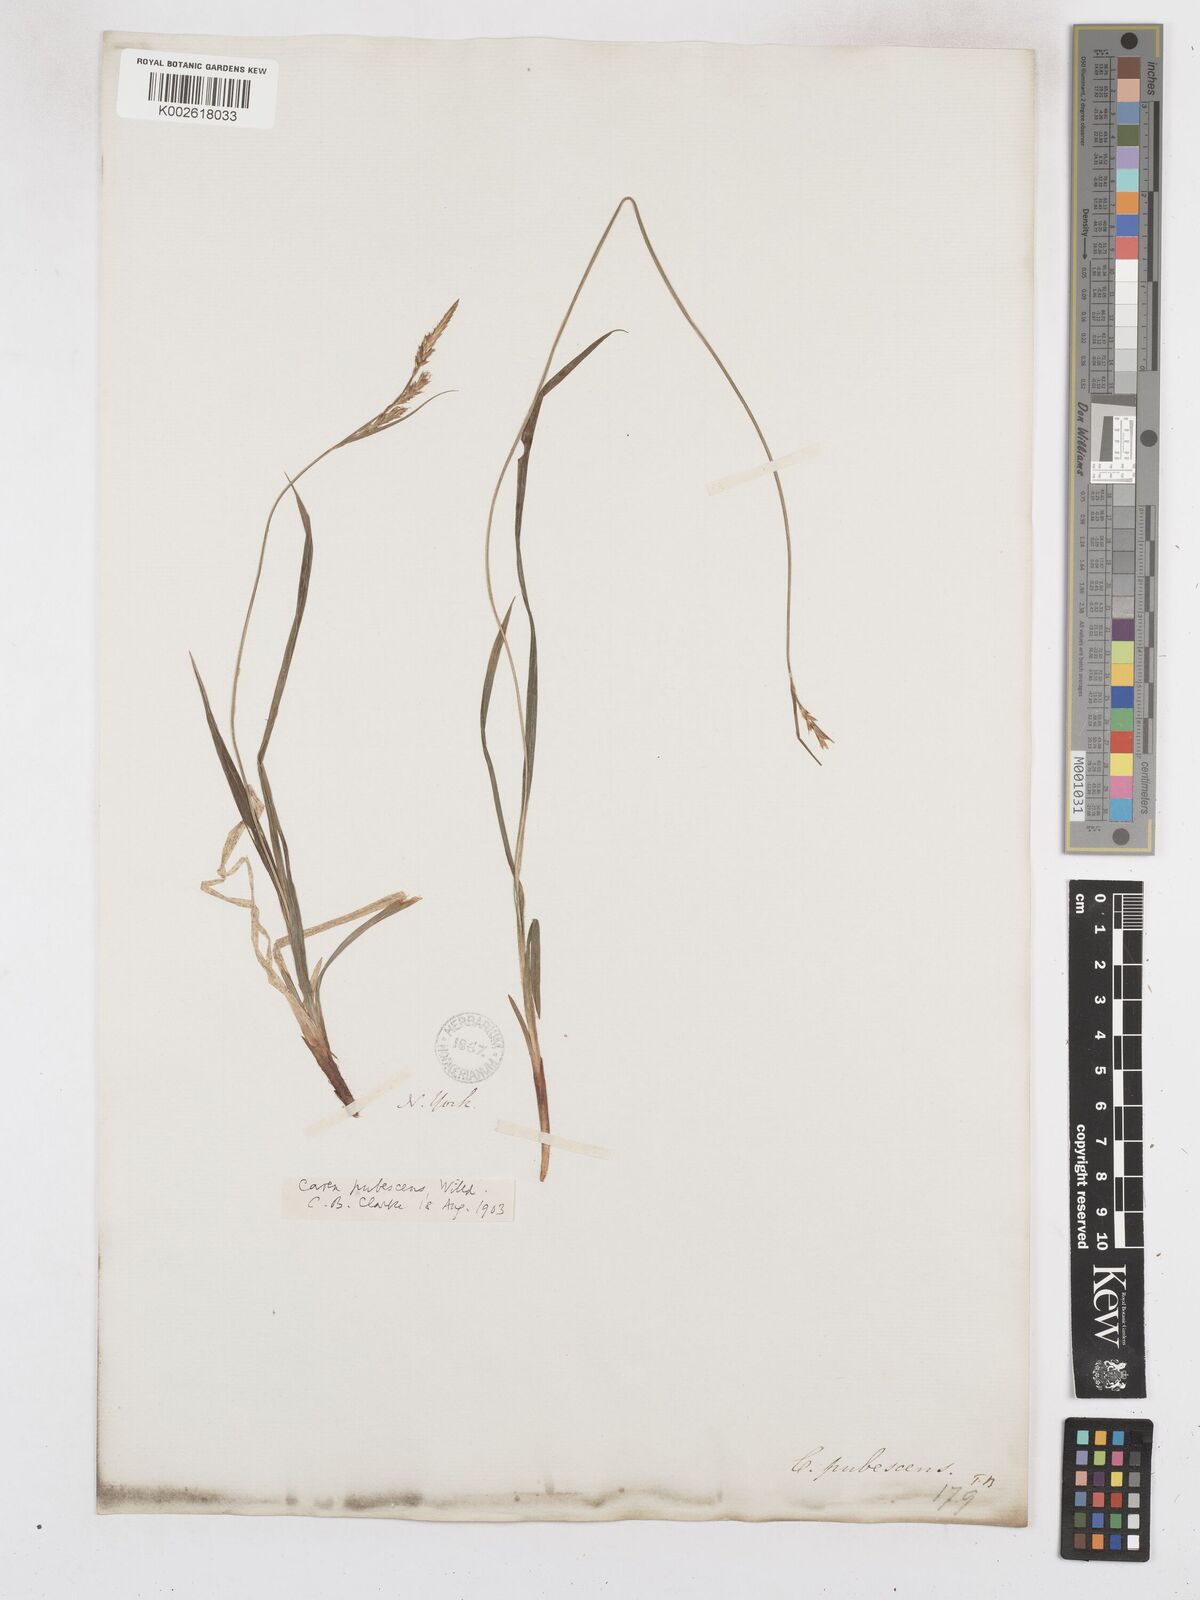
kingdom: Plantae
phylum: Tracheophyta
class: Liliopsida
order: Poales
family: Cyperaceae
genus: Carex
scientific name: Carex hirtifolia
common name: Hairy sedge
